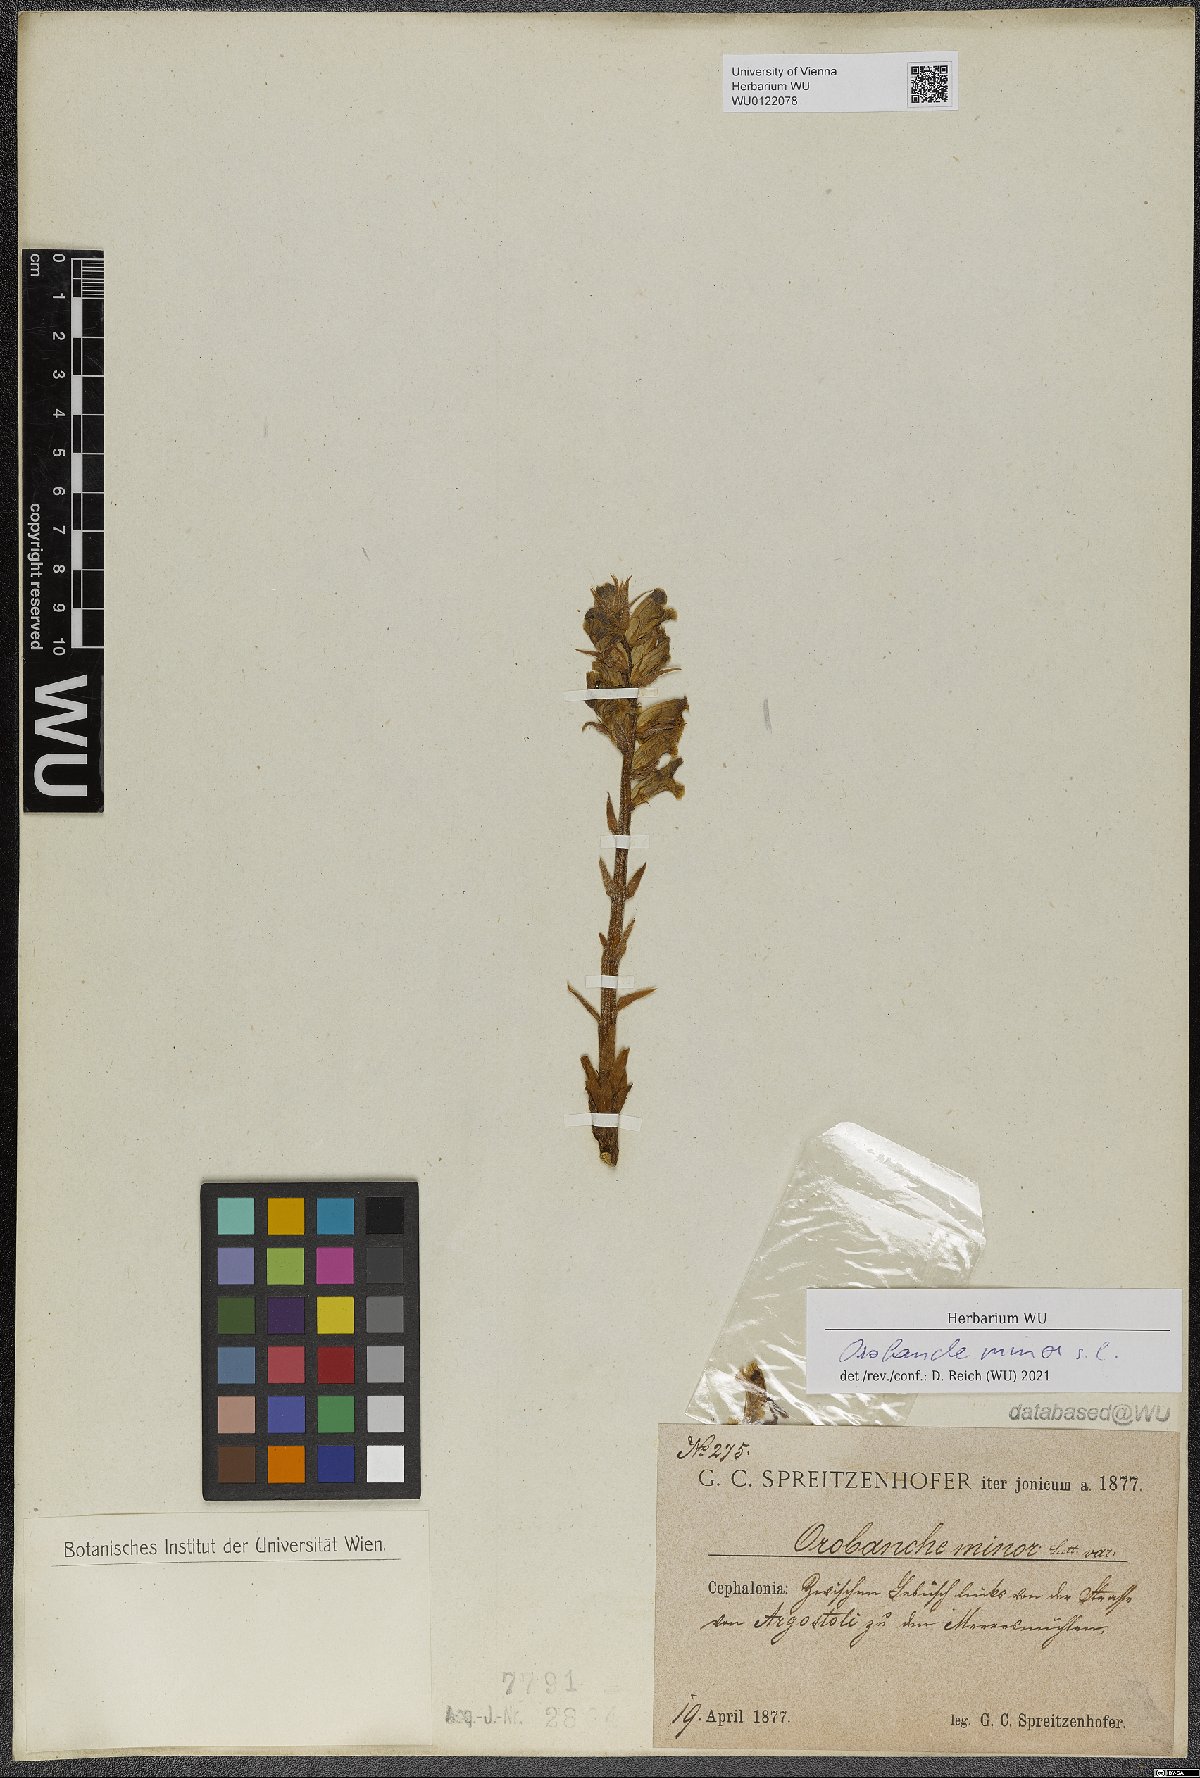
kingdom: Plantae
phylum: Tracheophyta
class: Magnoliopsida
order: Lamiales
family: Orobanchaceae
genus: Orobanche
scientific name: Orobanche minor
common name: Common broomrape
